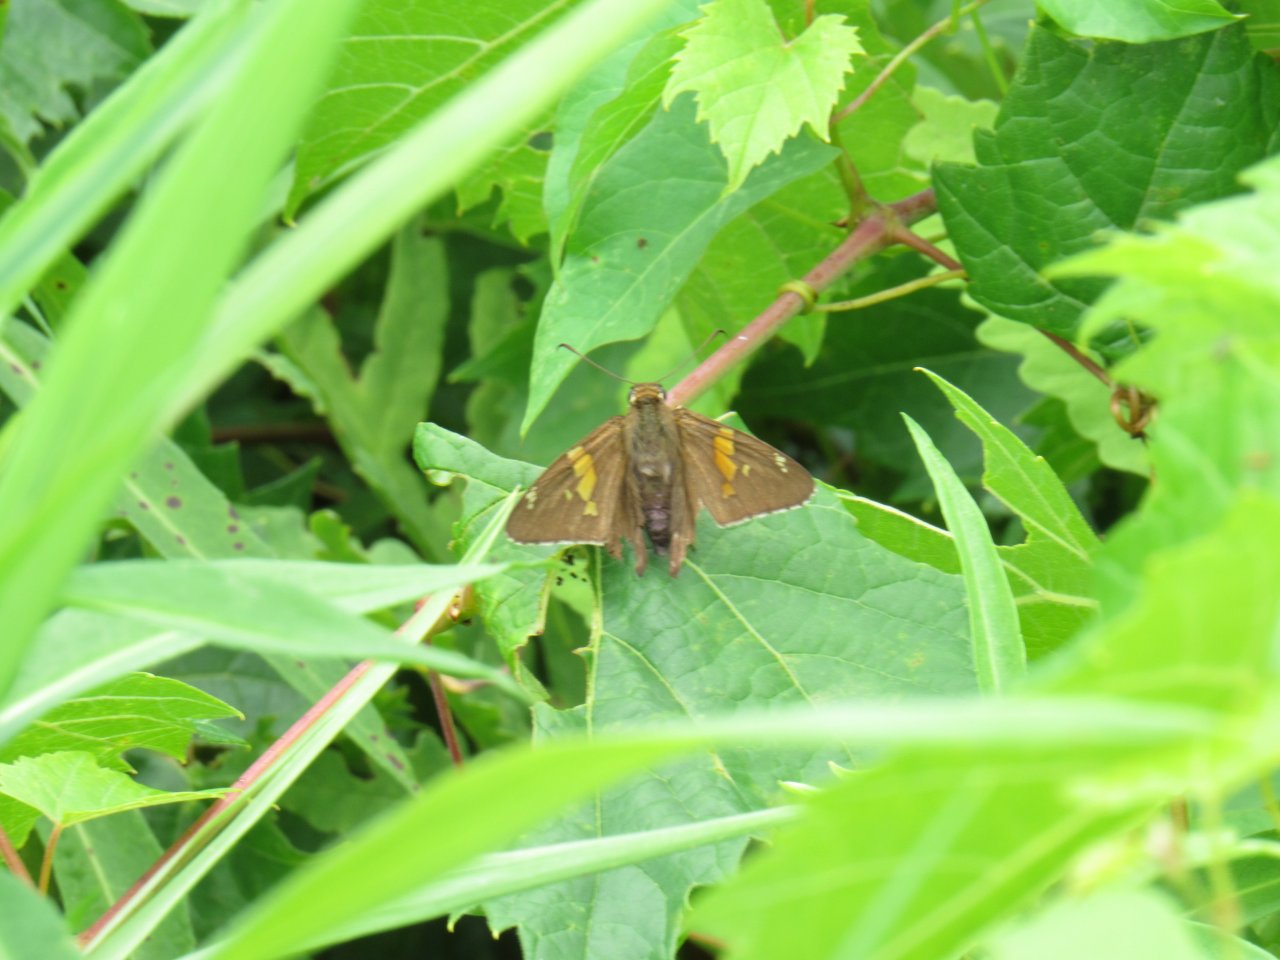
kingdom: Animalia
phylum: Arthropoda
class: Insecta
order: Lepidoptera
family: Hesperiidae
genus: Epargyreus
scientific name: Epargyreus clarus
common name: Silver-spotted Skipper
